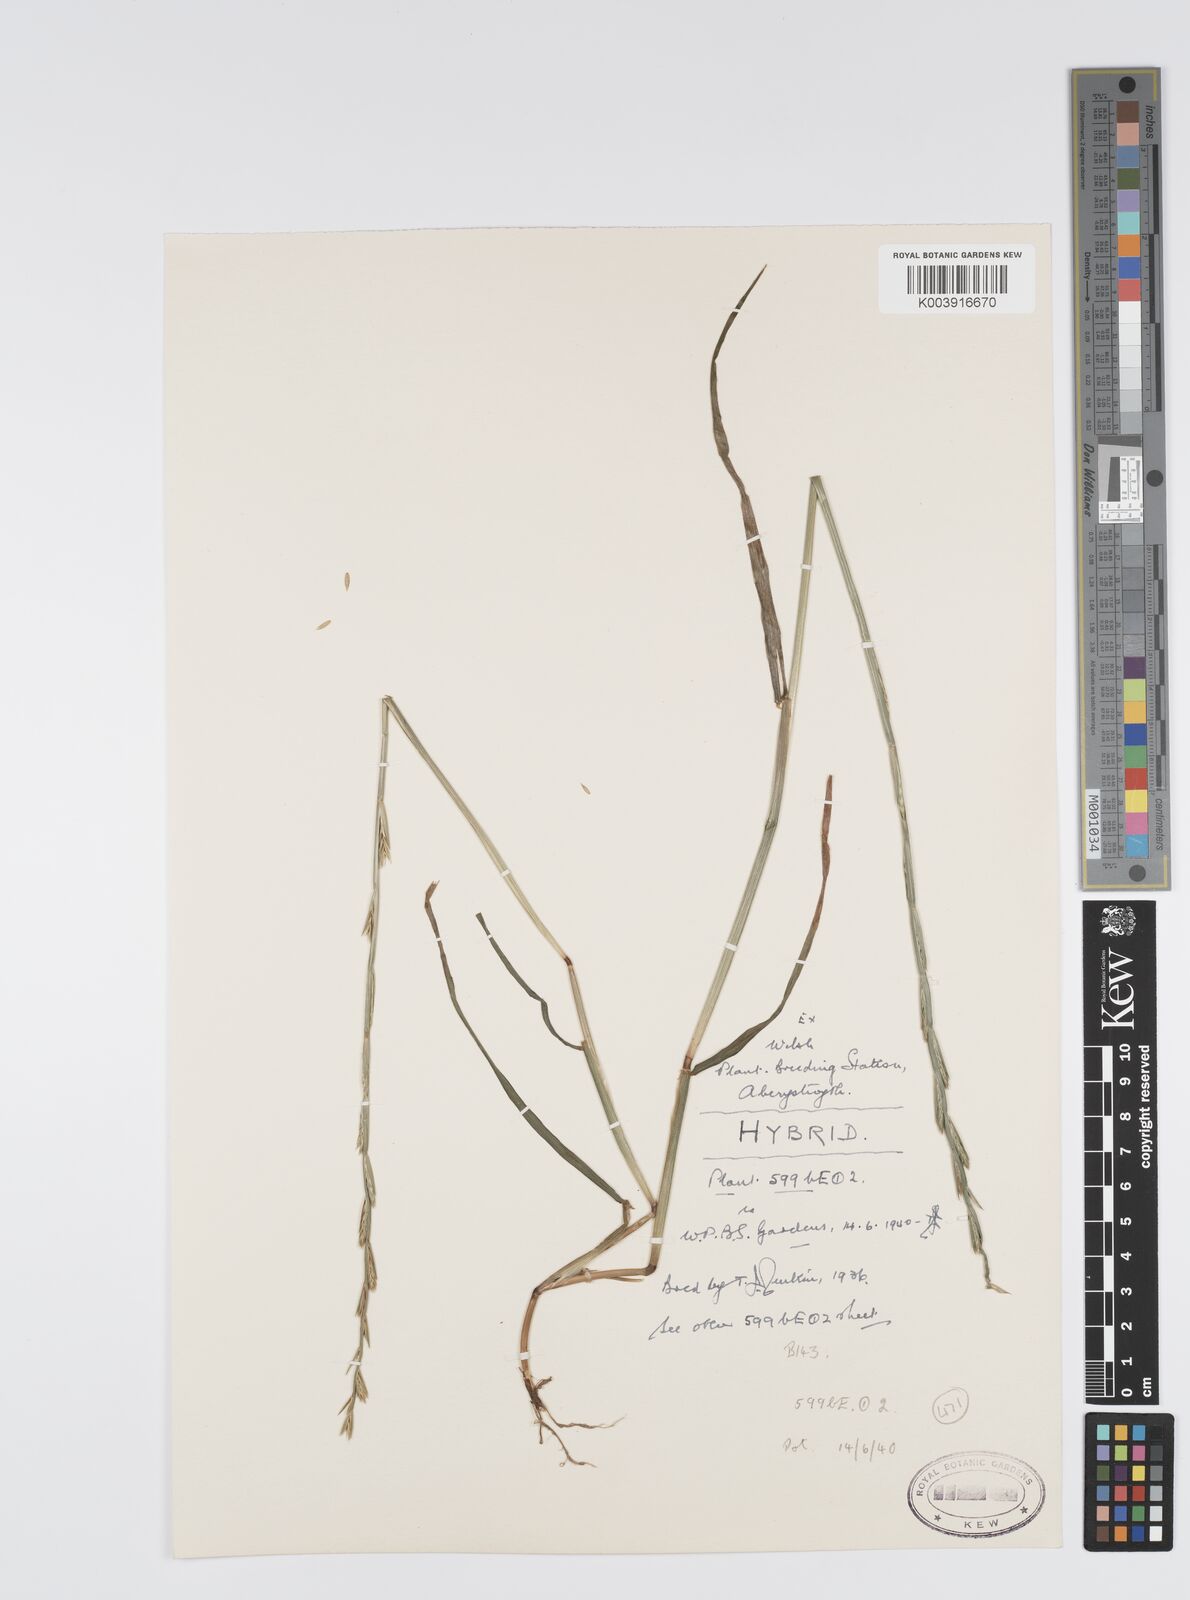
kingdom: Plantae
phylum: Tracheophyta
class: Liliopsida
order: Poales
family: Poaceae
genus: Lolium
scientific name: Lolium perenne
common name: Perennial ryegrass
